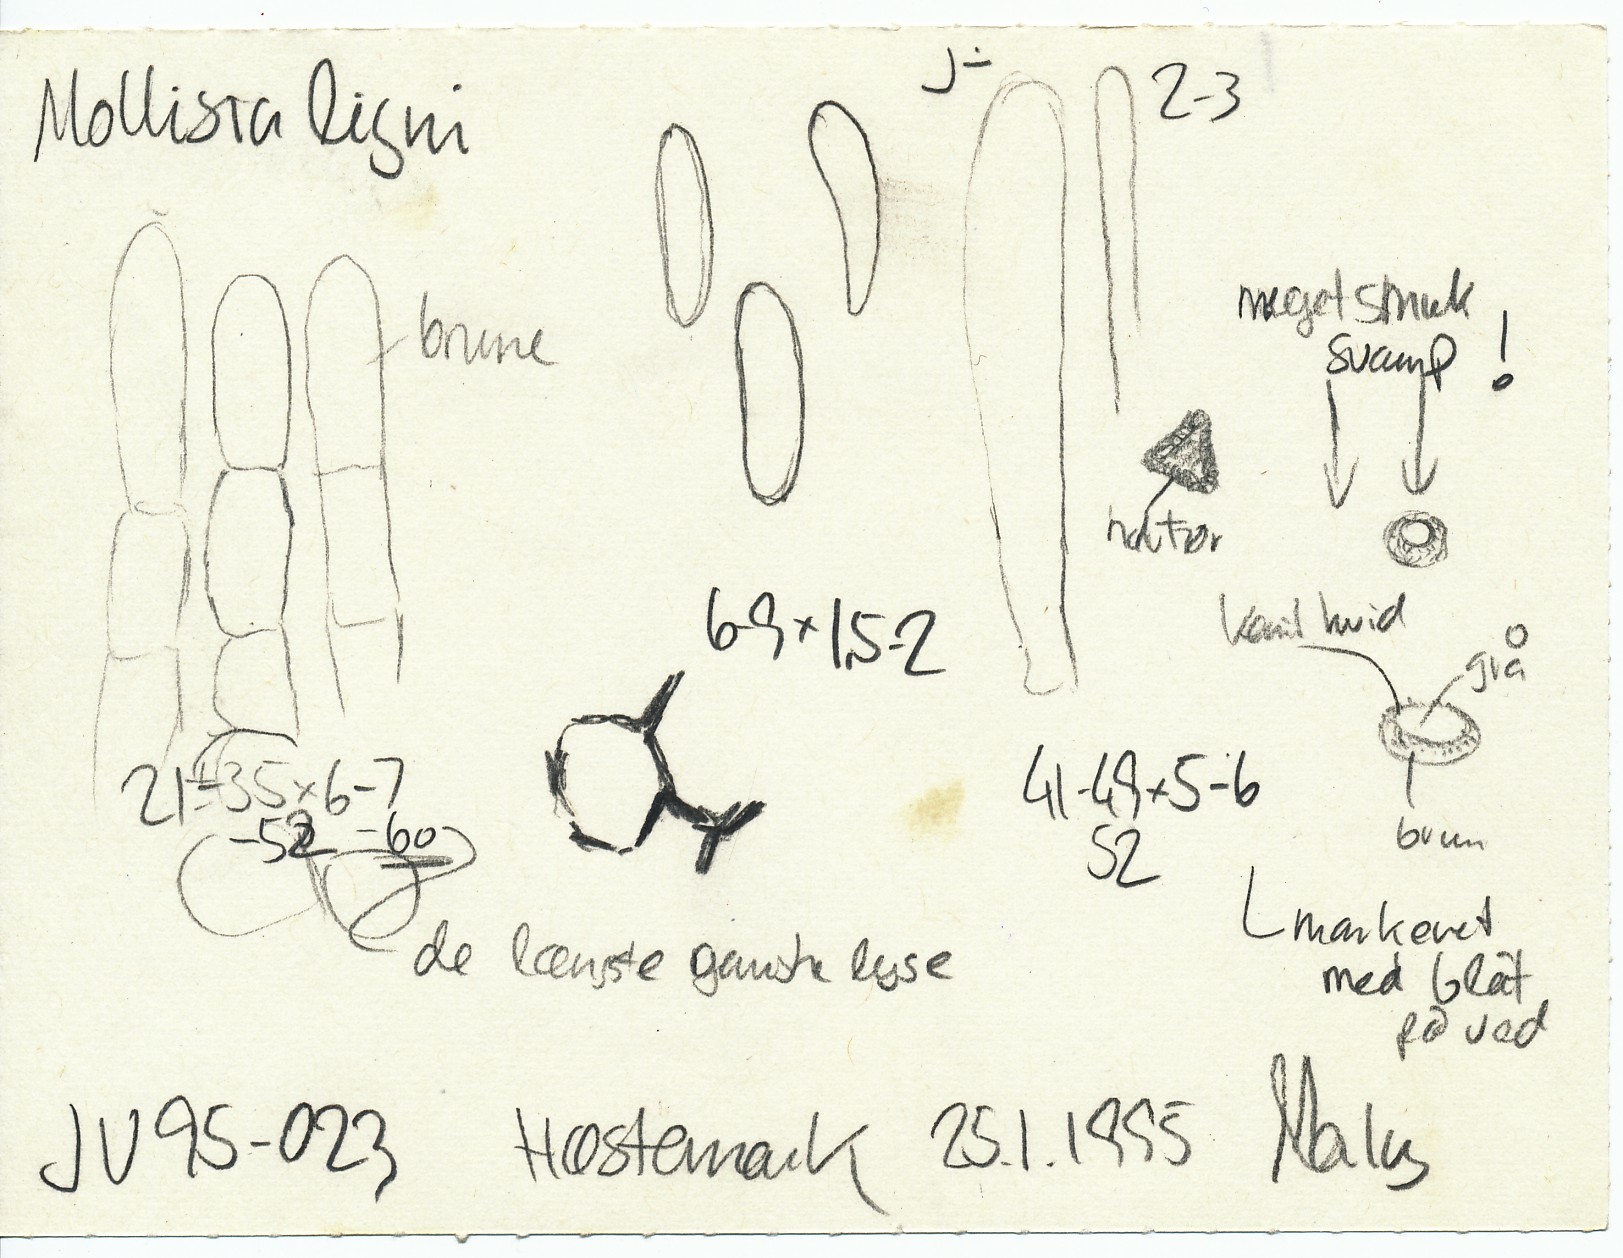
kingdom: Fungi
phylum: Ascomycota
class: Leotiomycetes
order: Helotiales
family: Mollisiaceae
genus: Mollisia
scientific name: Mollisia ligni
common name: ved-gråskive
